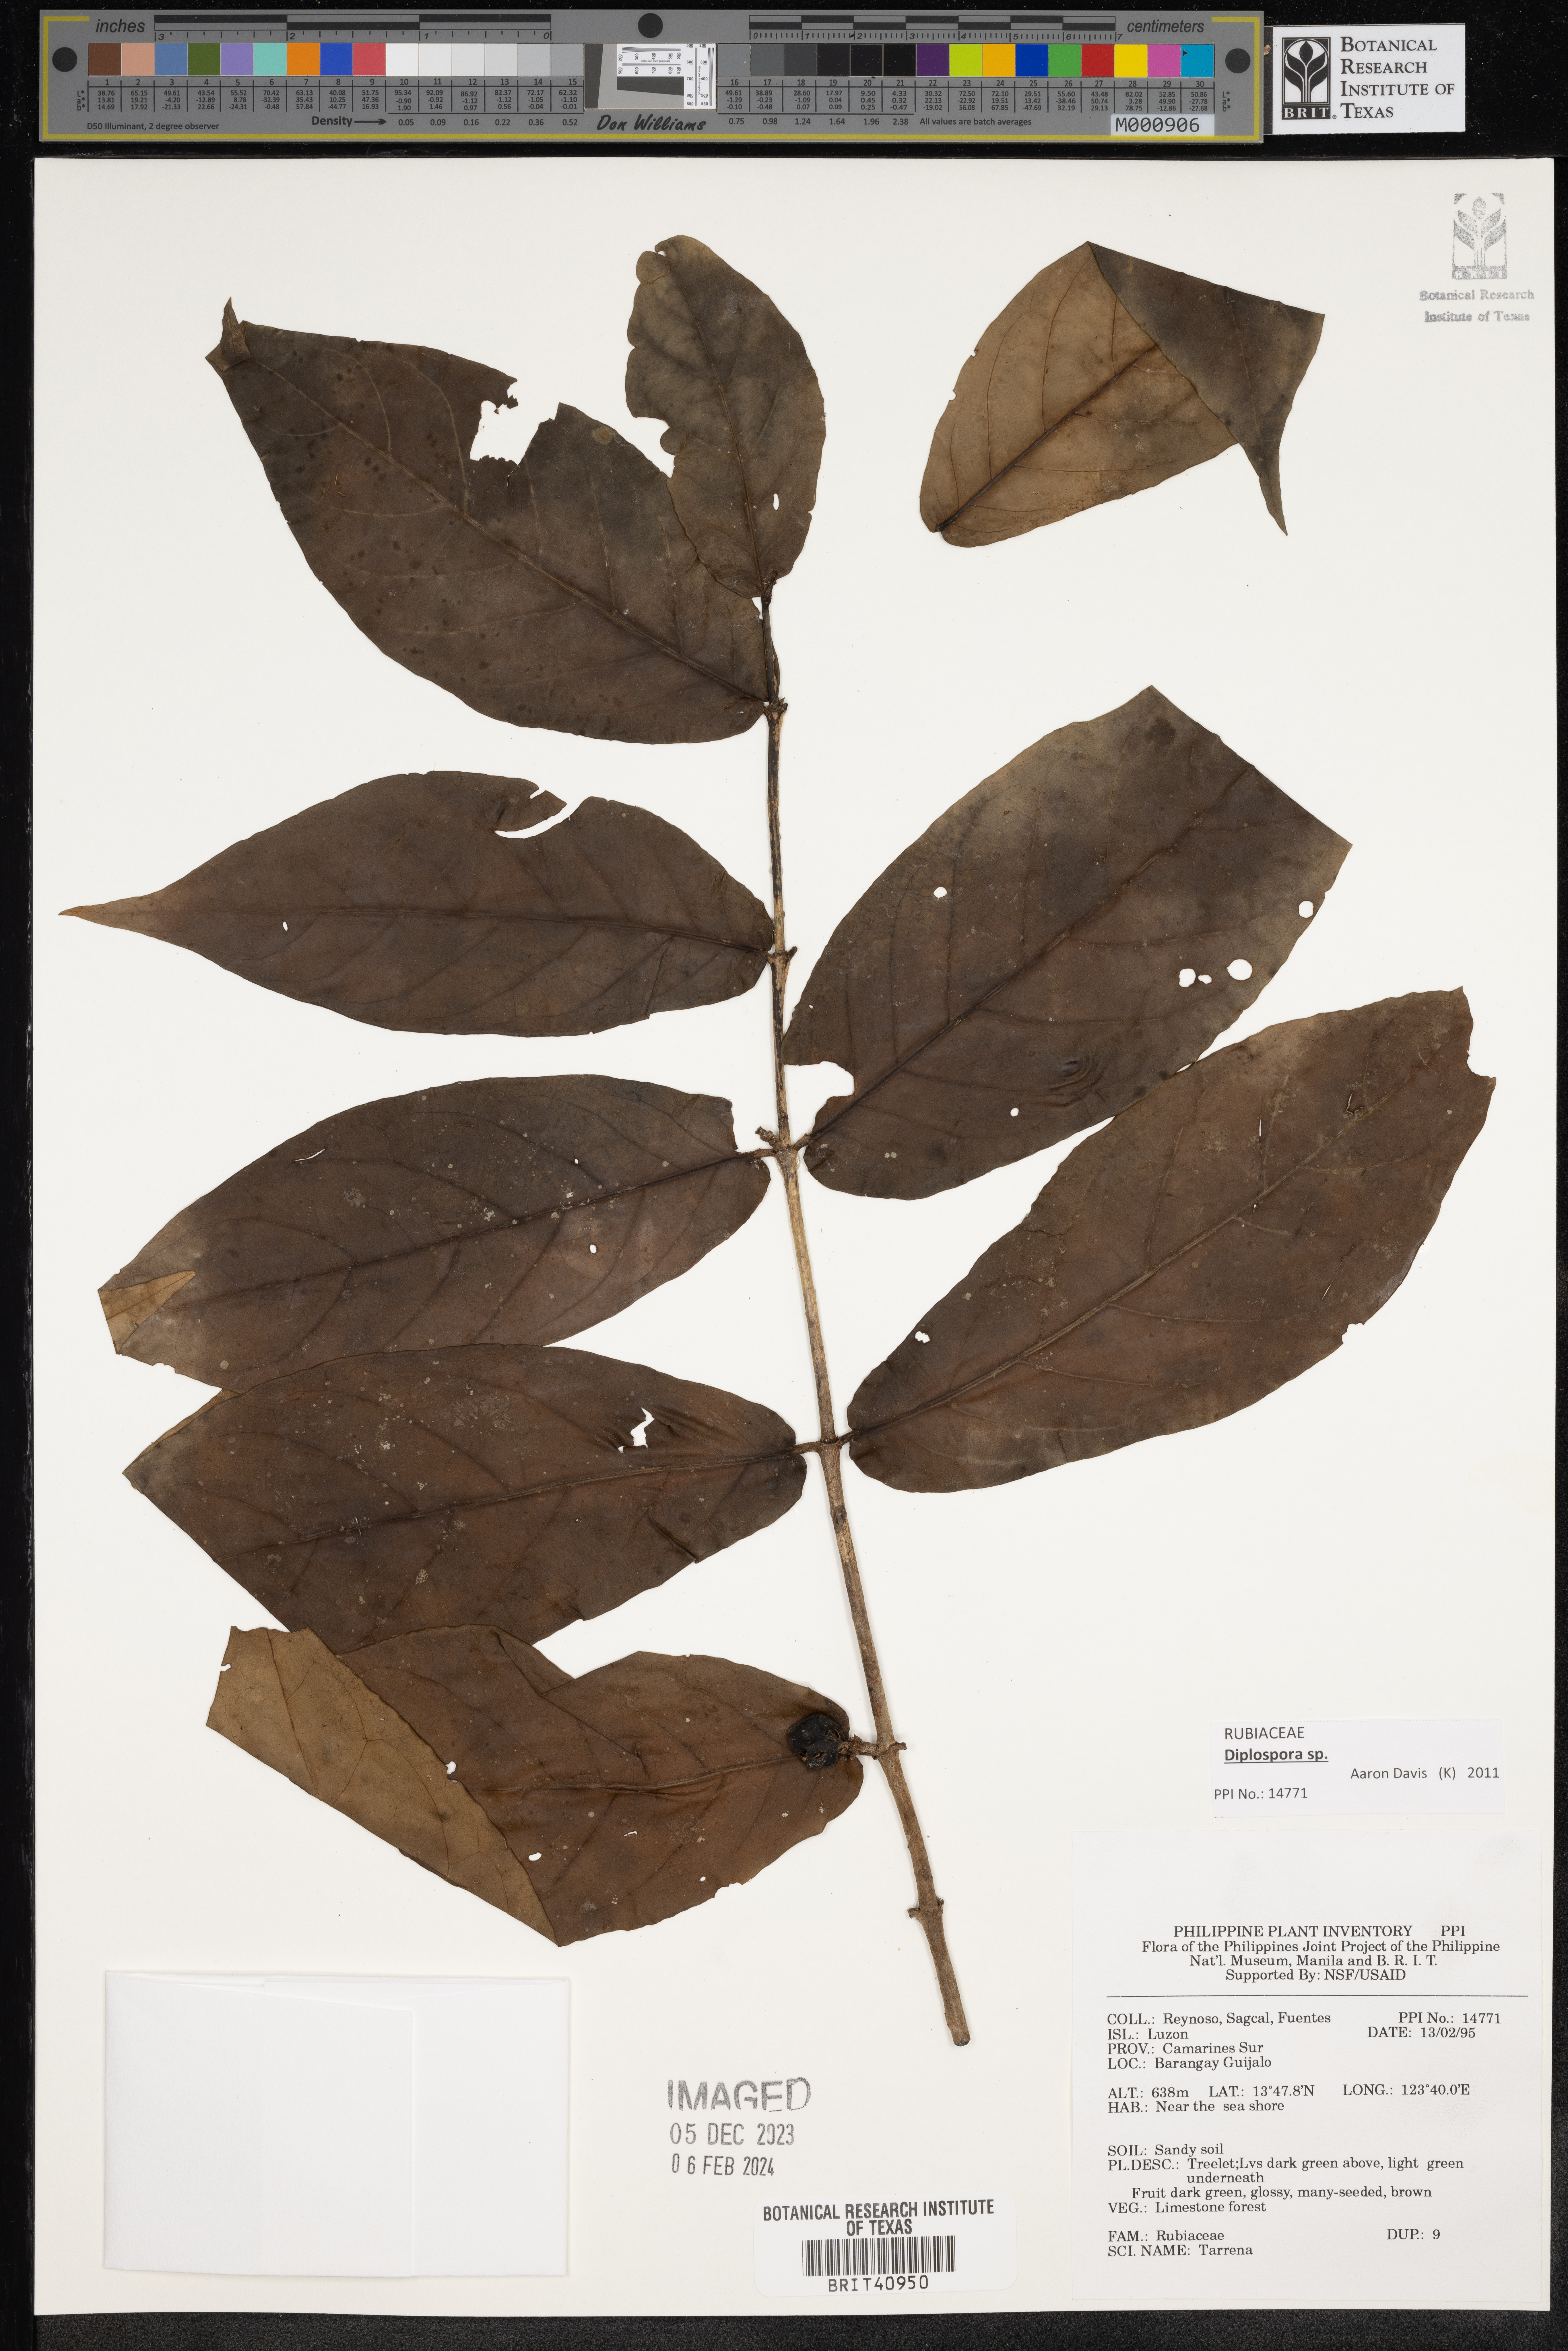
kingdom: Plantae
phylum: Tracheophyta
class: Magnoliopsida
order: Gentianales
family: Rubiaceae
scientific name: Rubiaceae
